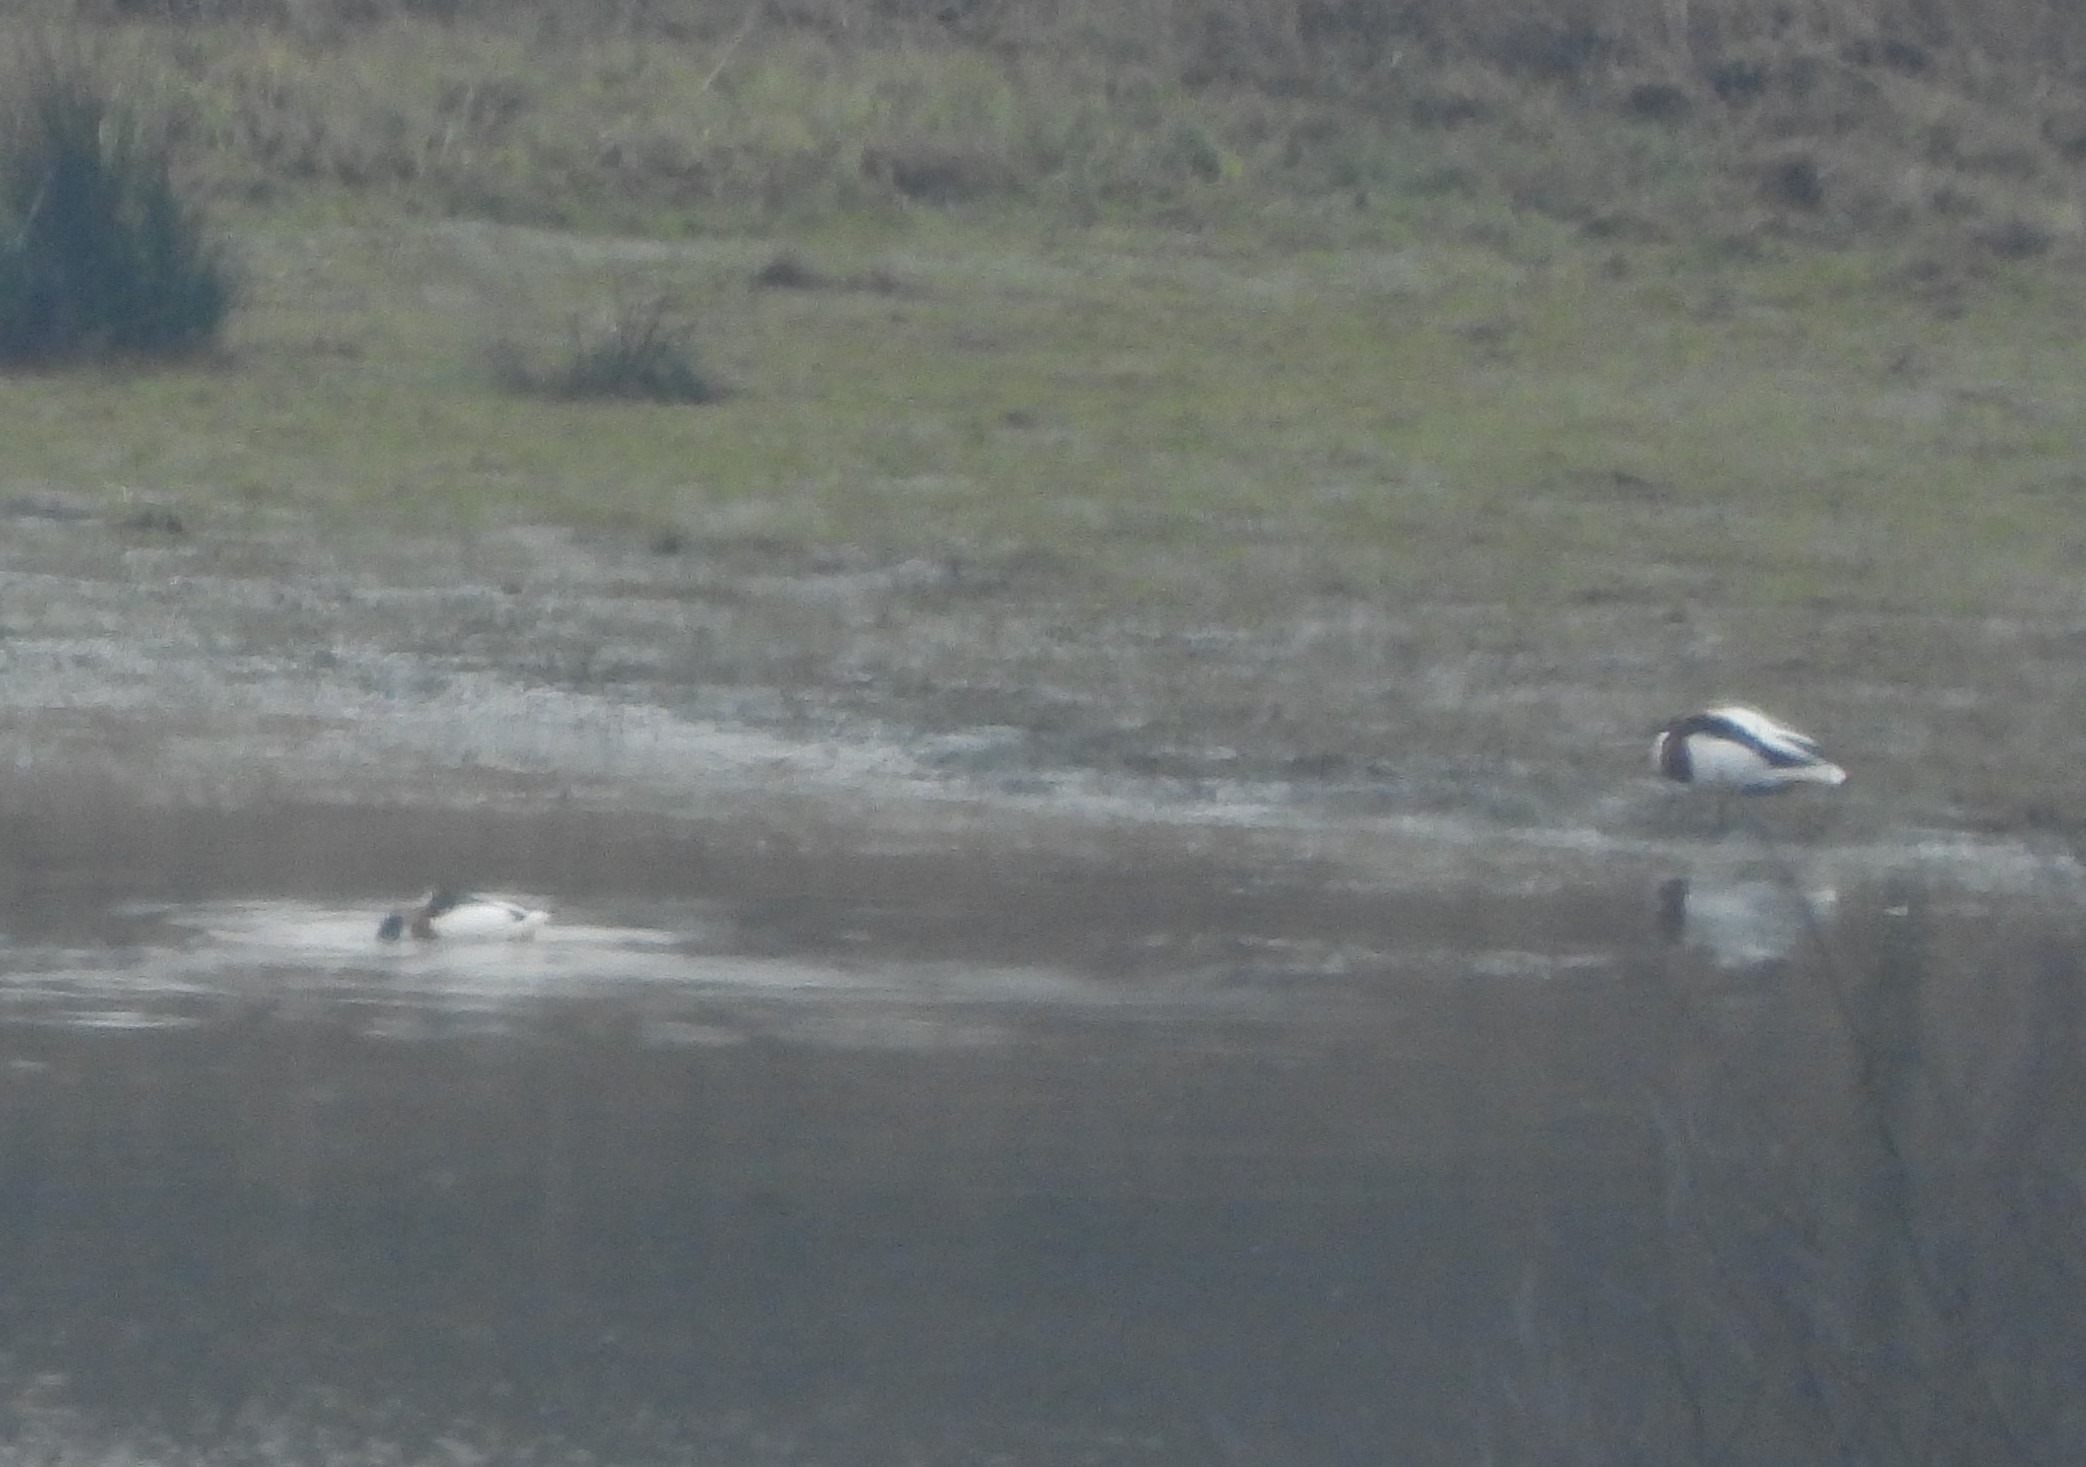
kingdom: Animalia
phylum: Chordata
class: Aves
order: Anseriformes
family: Anatidae
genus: Tadorna
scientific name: Tadorna tadorna
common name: Gravand
